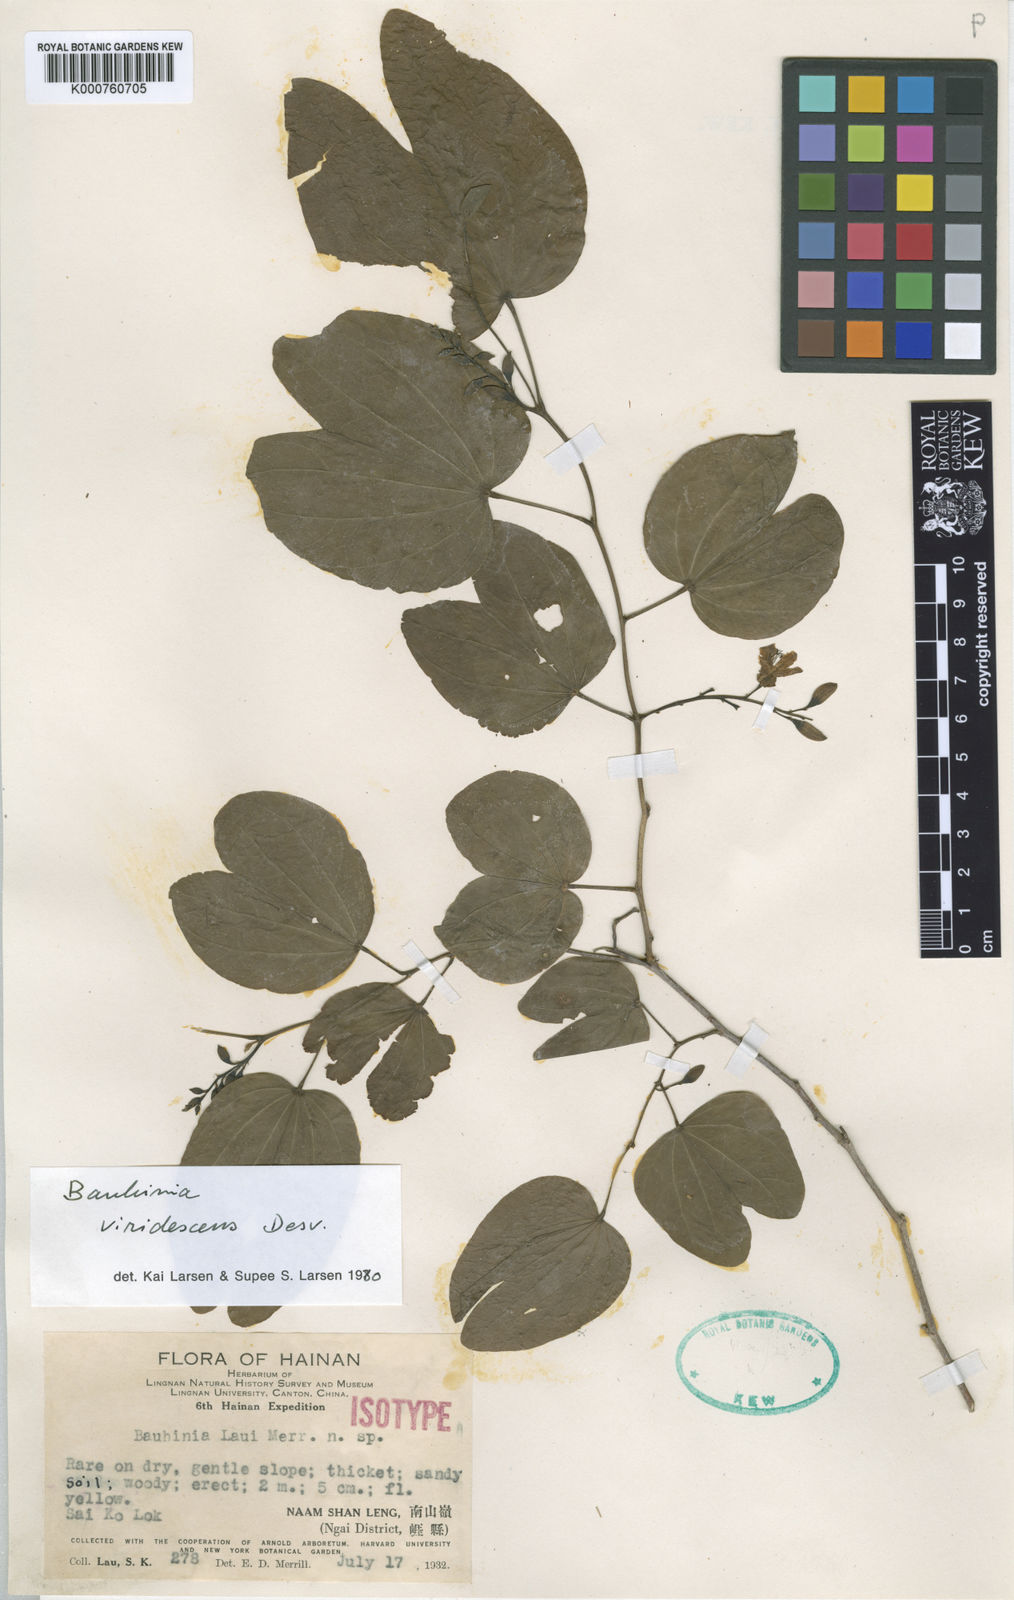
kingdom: Plantae
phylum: Tracheophyta
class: Magnoliopsida
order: Fabales
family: Fabaceae
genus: Bauhinia
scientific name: Bauhinia viridescens
